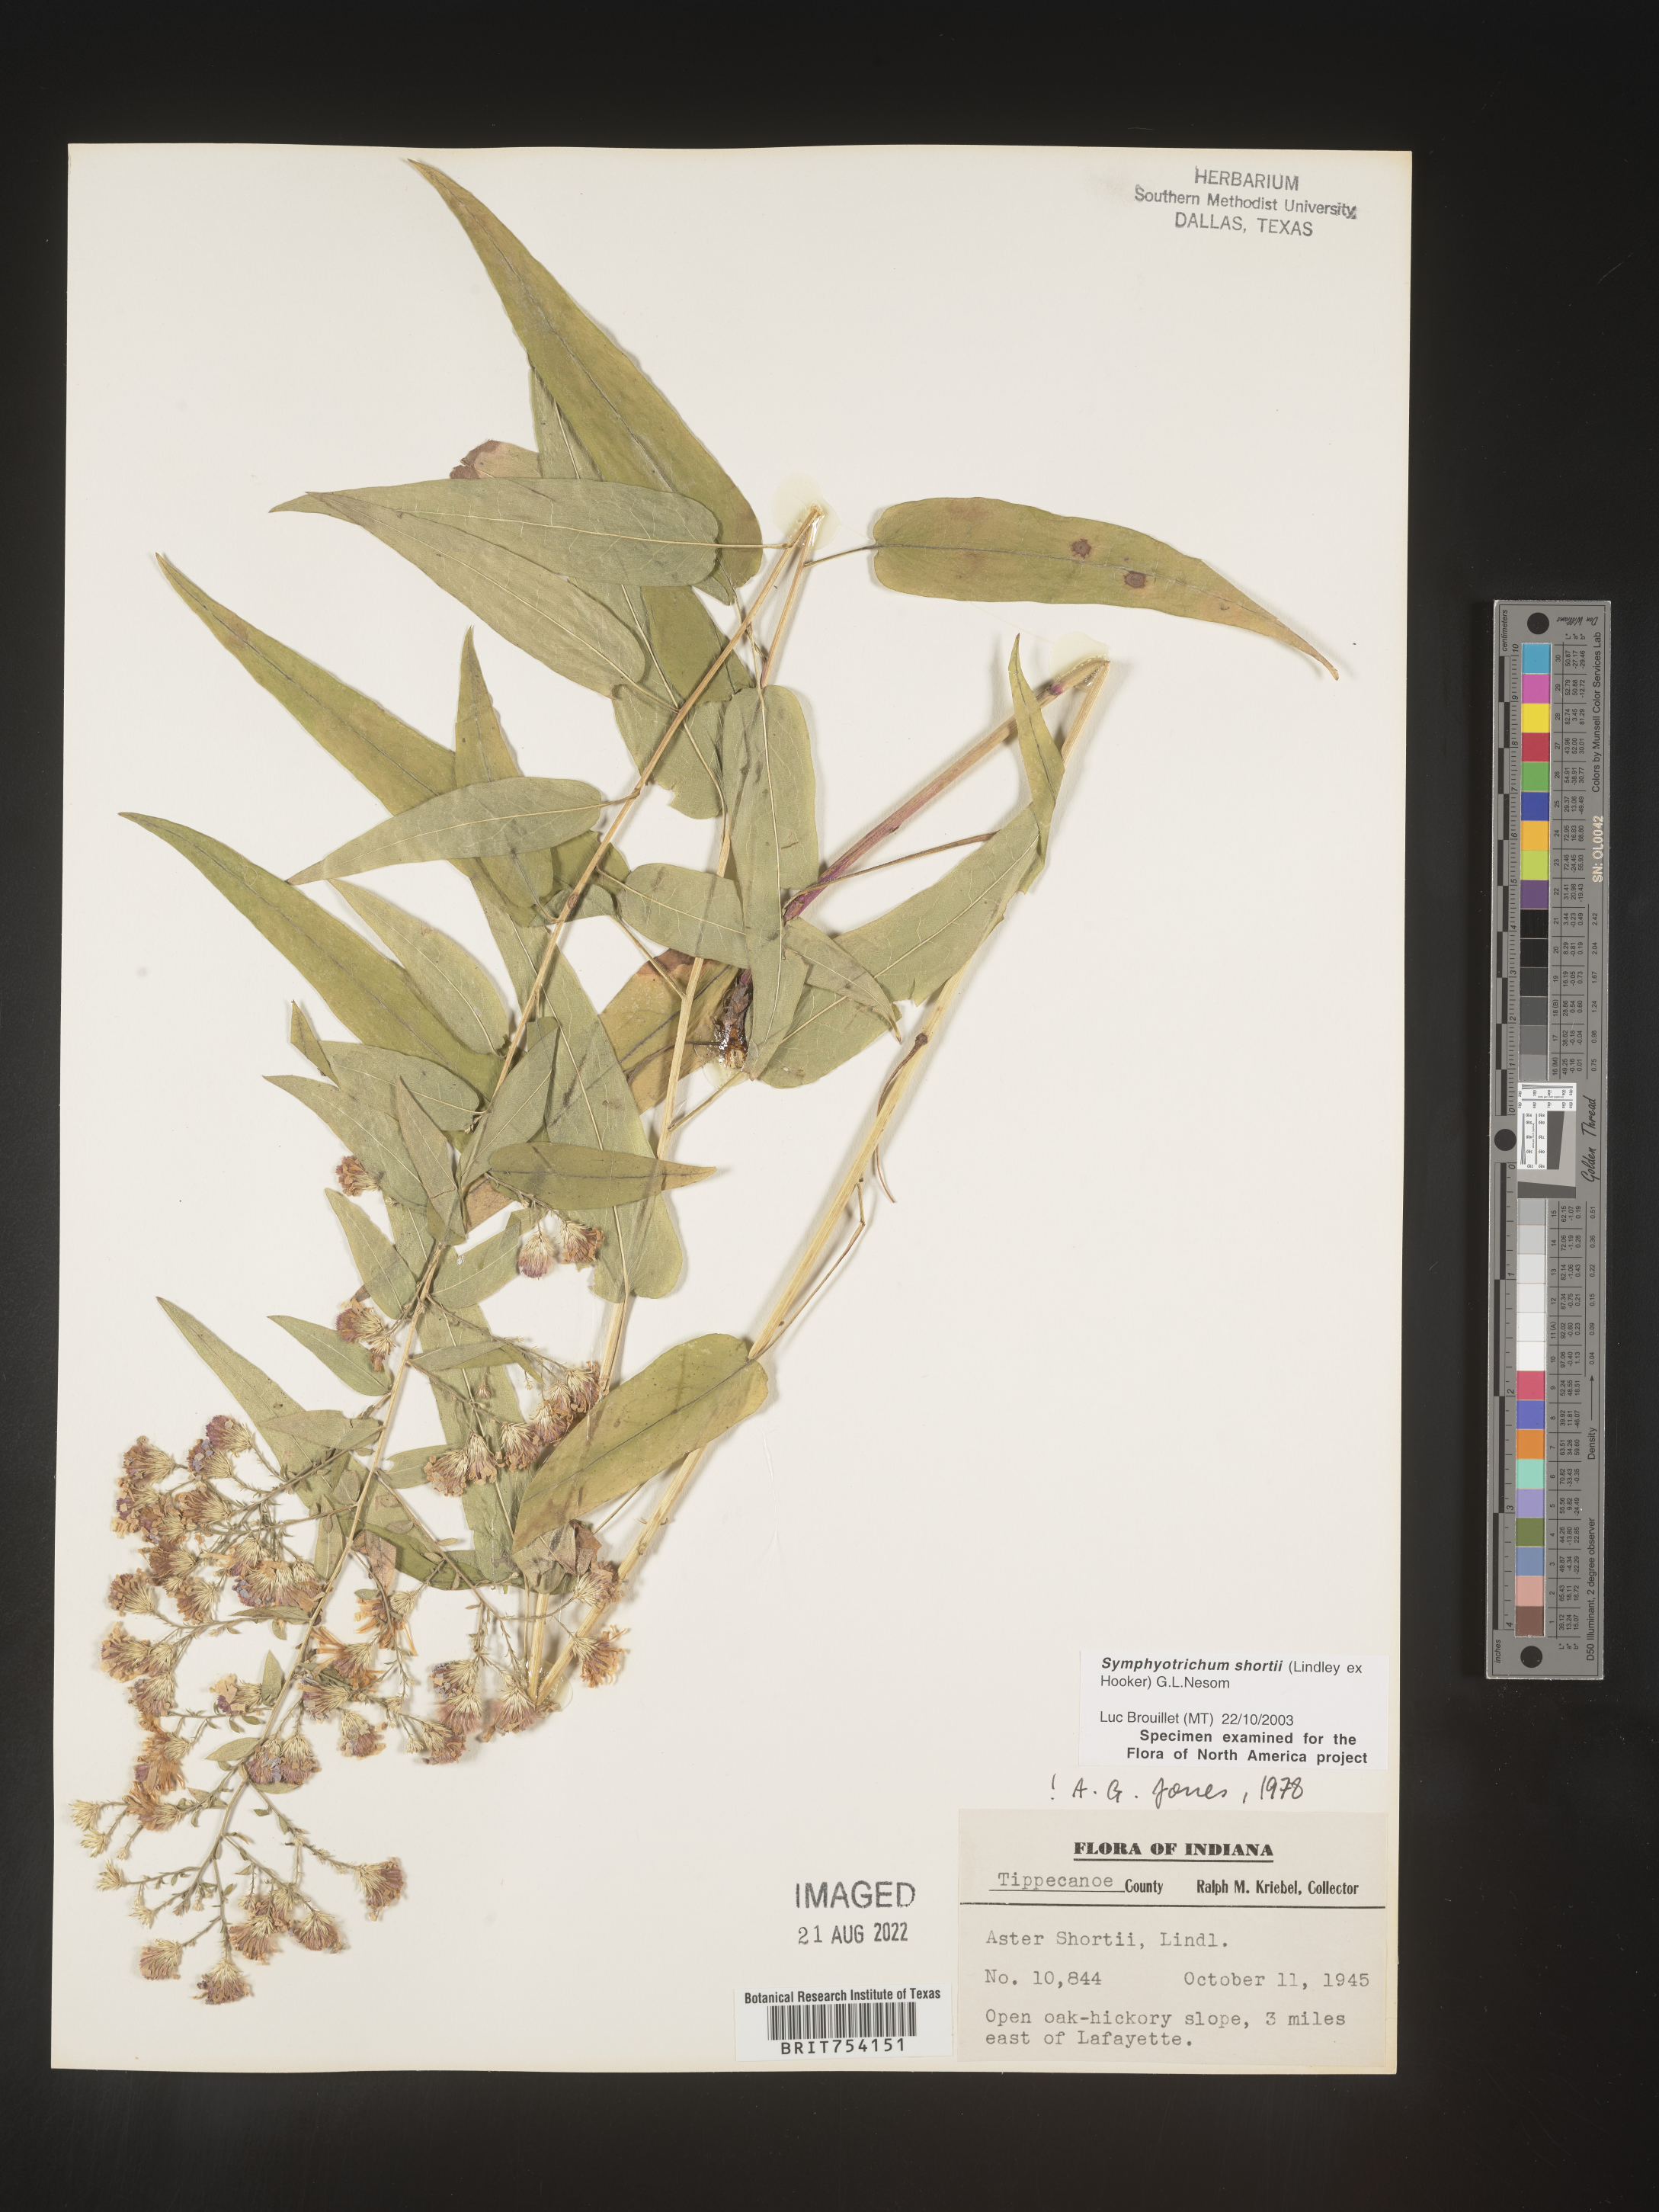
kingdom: Plantae
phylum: Tracheophyta
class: Magnoliopsida
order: Asterales
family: Asteraceae
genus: Symphyotrichum
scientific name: Symphyotrichum shortii
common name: Short's aster
